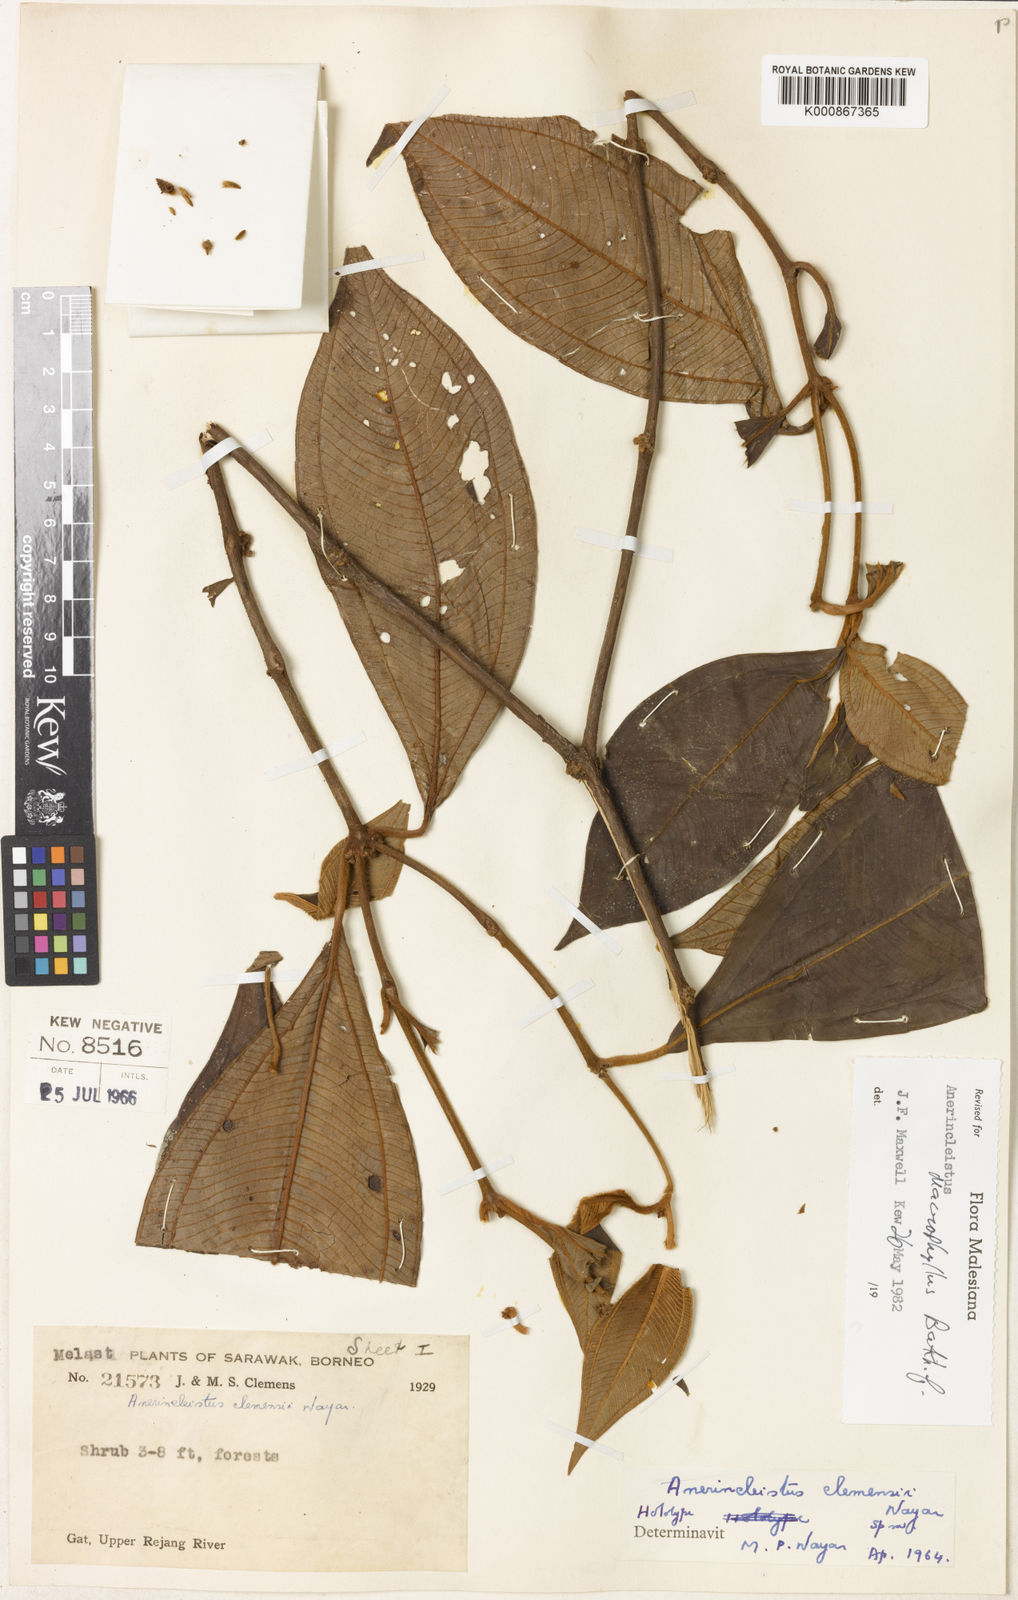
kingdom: Plantae
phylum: Tracheophyta
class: Magnoliopsida
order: Myrtales
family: Melastomataceae
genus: Anerincleistus
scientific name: Anerincleistus macrophyllus
